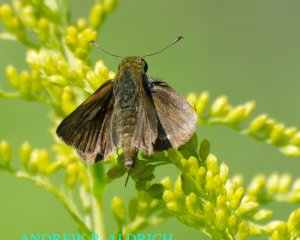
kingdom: Animalia
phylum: Arthropoda
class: Insecta
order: Lepidoptera
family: Hesperiidae
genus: Euphyes
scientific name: Euphyes vestris
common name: Dun Skipper
